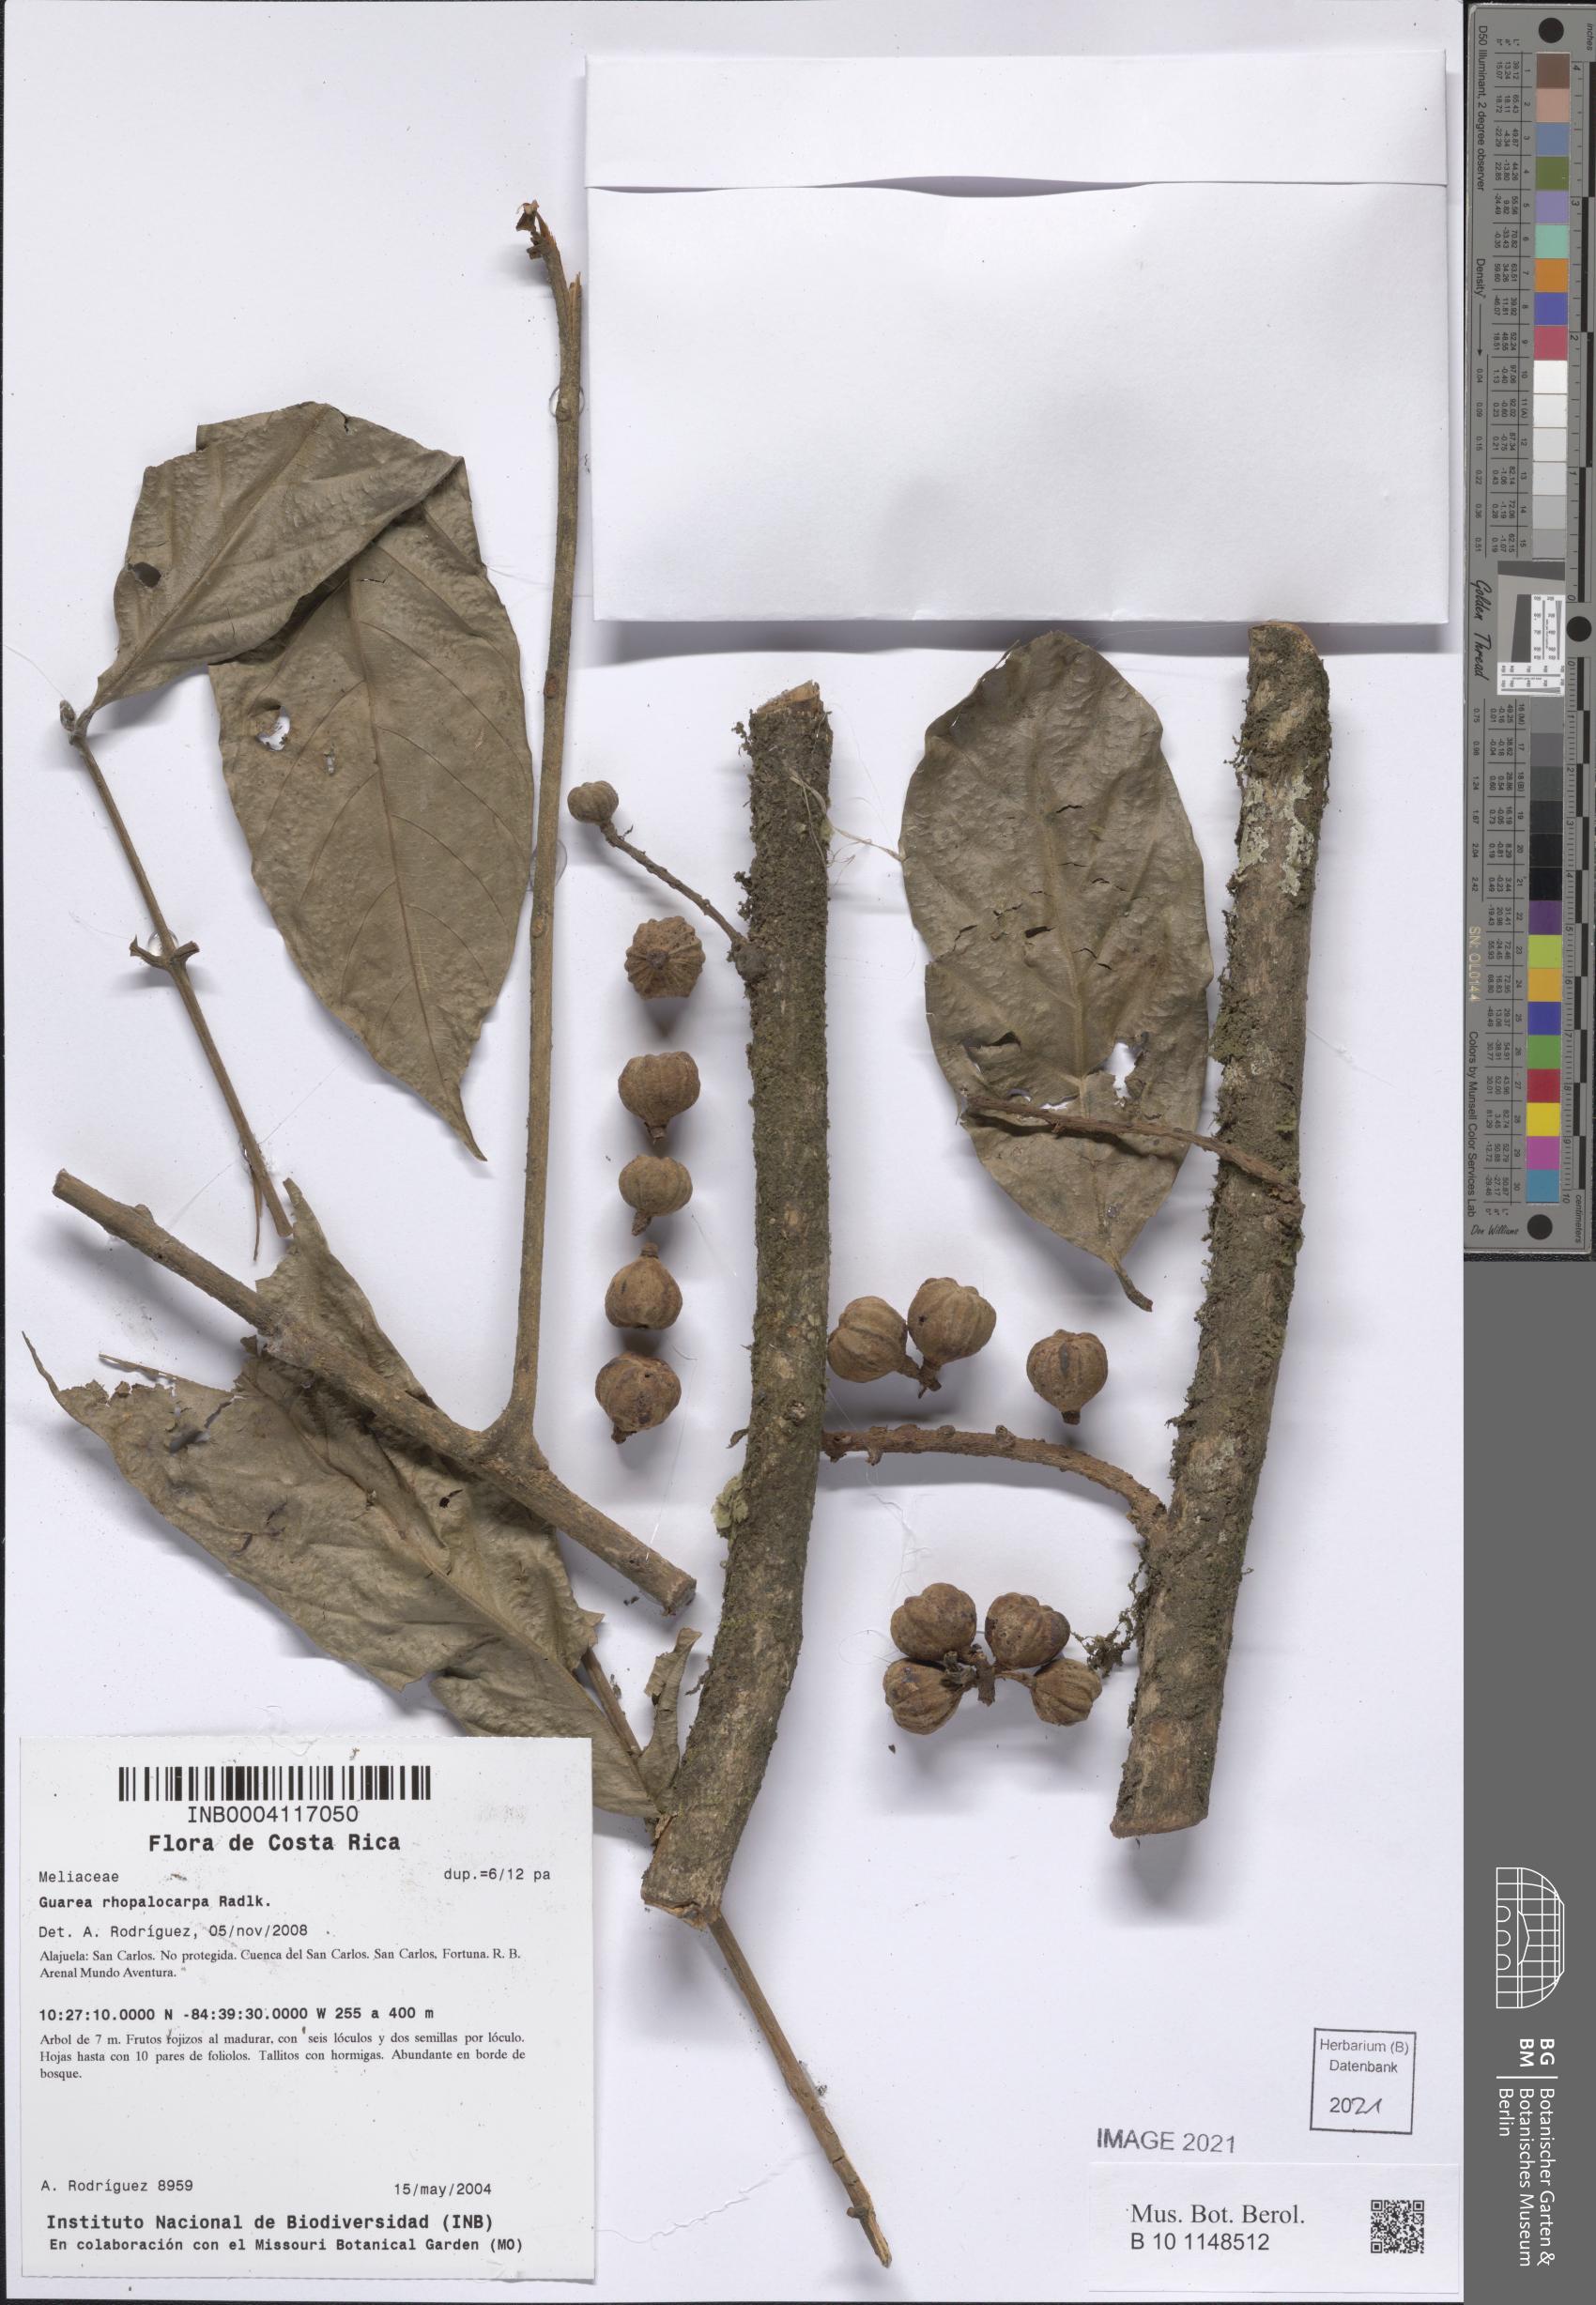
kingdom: Plantae
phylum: Tracheophyta
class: Magnoliopsida
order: Sapindales
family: Meliaceae
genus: Guarea
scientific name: Guarea rhopalocarpa
